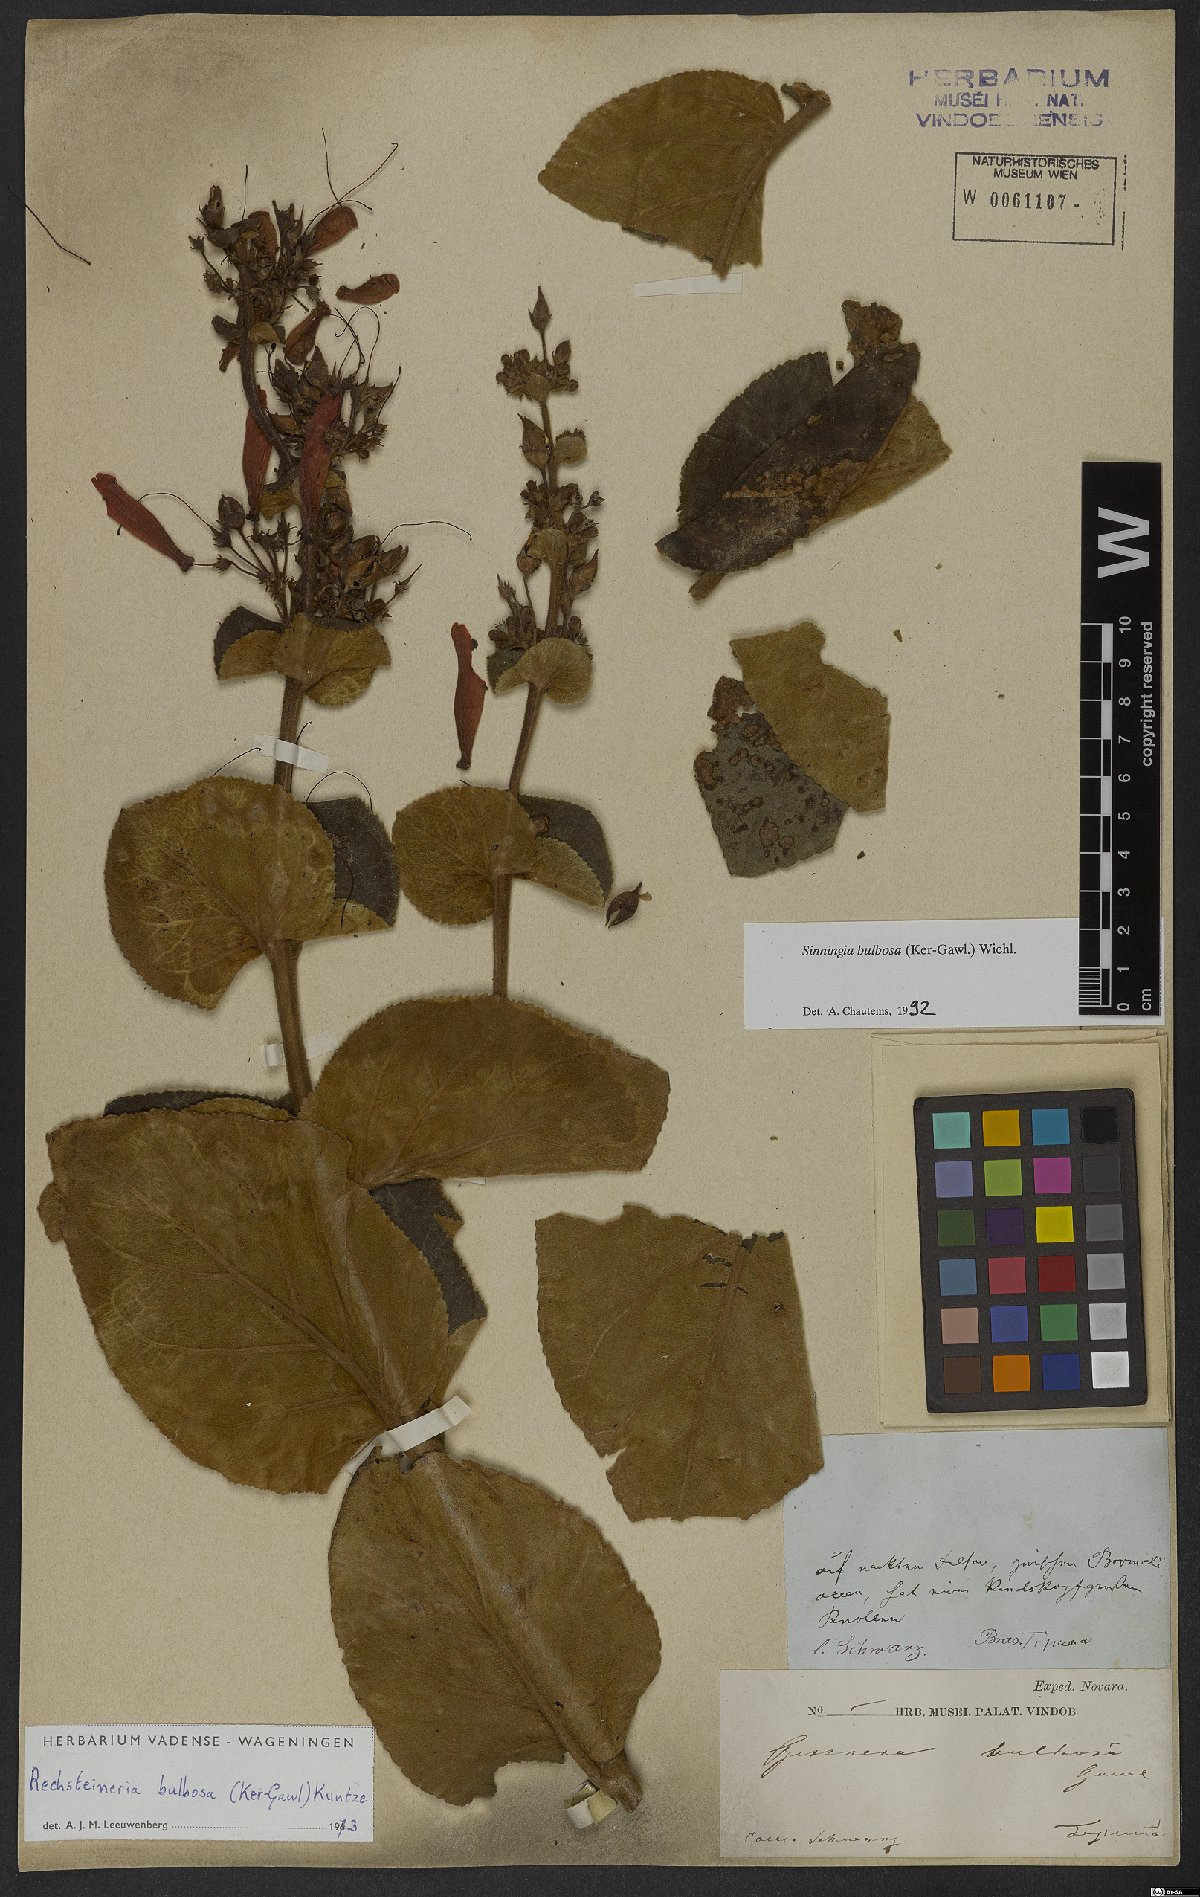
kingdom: Plantae
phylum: Tracheophyta
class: Magnoliopsida
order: Lamiales
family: Gesneriaceae
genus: Sinningia
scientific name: Sinningia bulbosa
